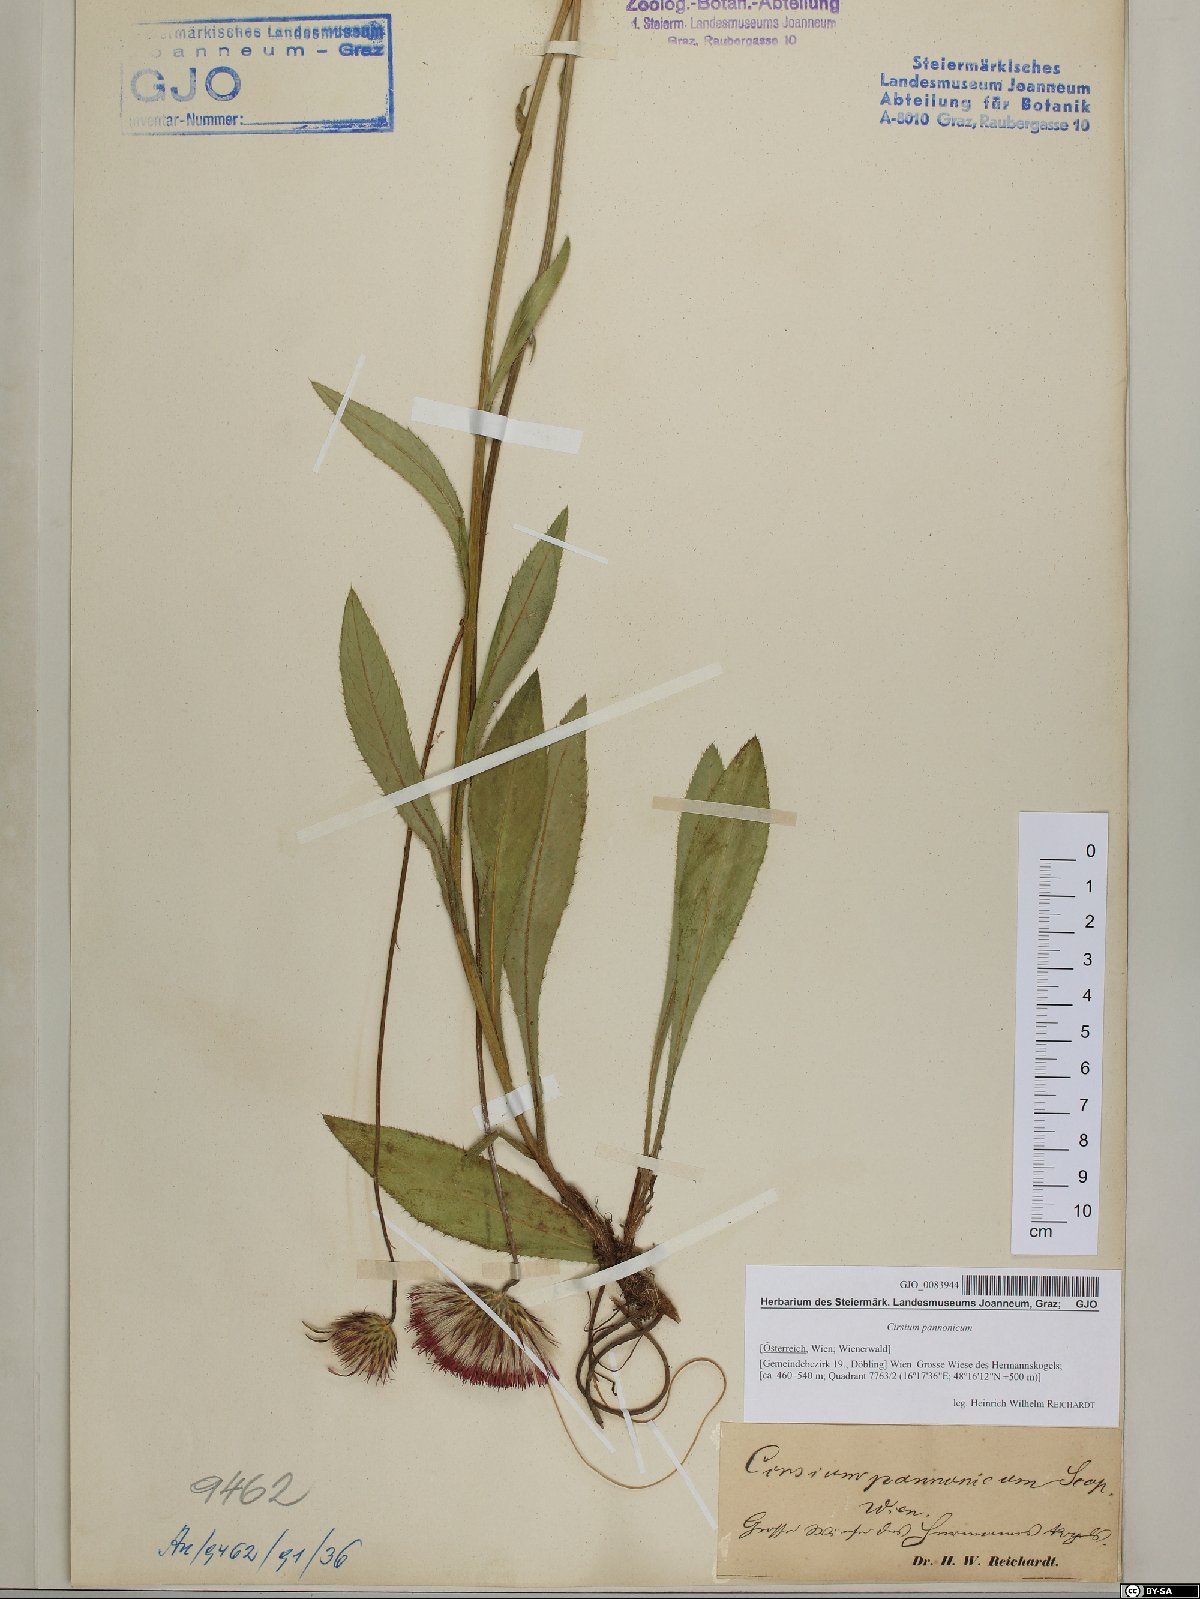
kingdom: Plantae
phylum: Tracheophyta
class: Magnoliopsida
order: Asterales
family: Asteraceae
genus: Cirsium
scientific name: Cirsium pannonicum
